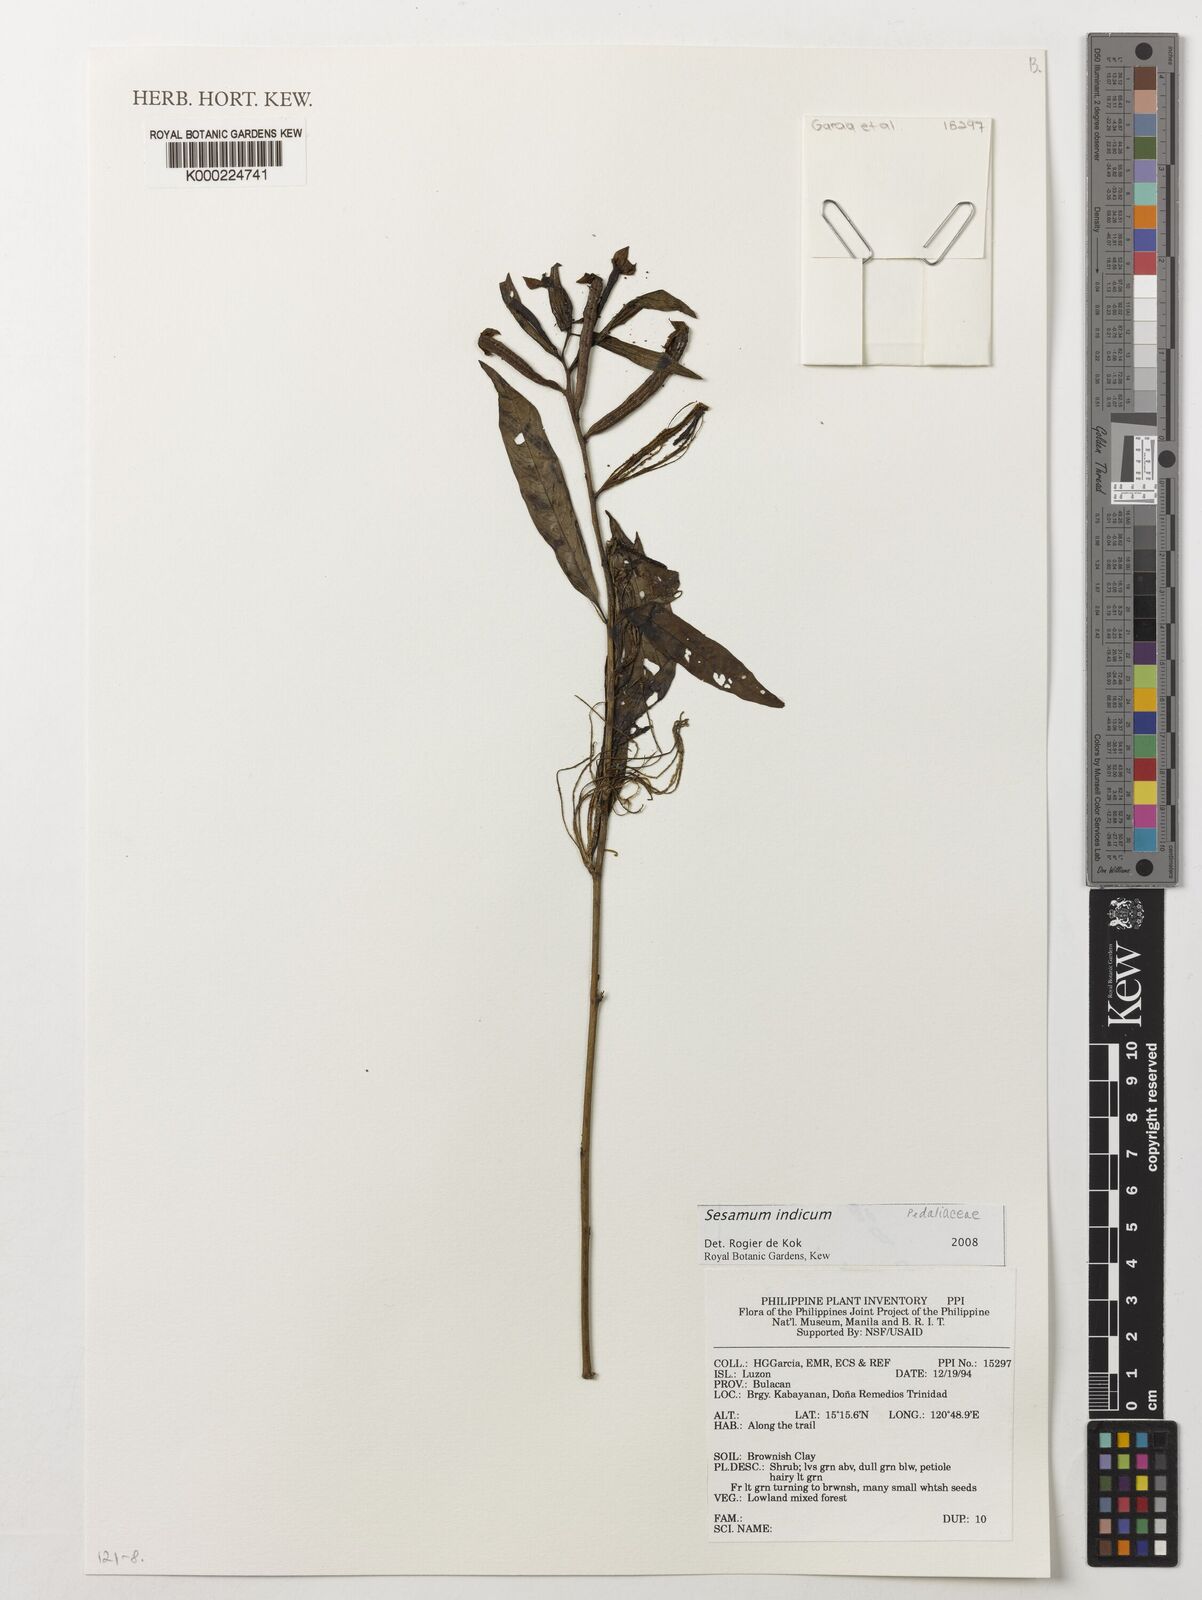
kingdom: Plantae
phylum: Tracheophyta
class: Magnoliopsida
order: Lamiales
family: Pedaliaceae
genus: Sesamum
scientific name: Sesamum indicum
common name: Sesame
